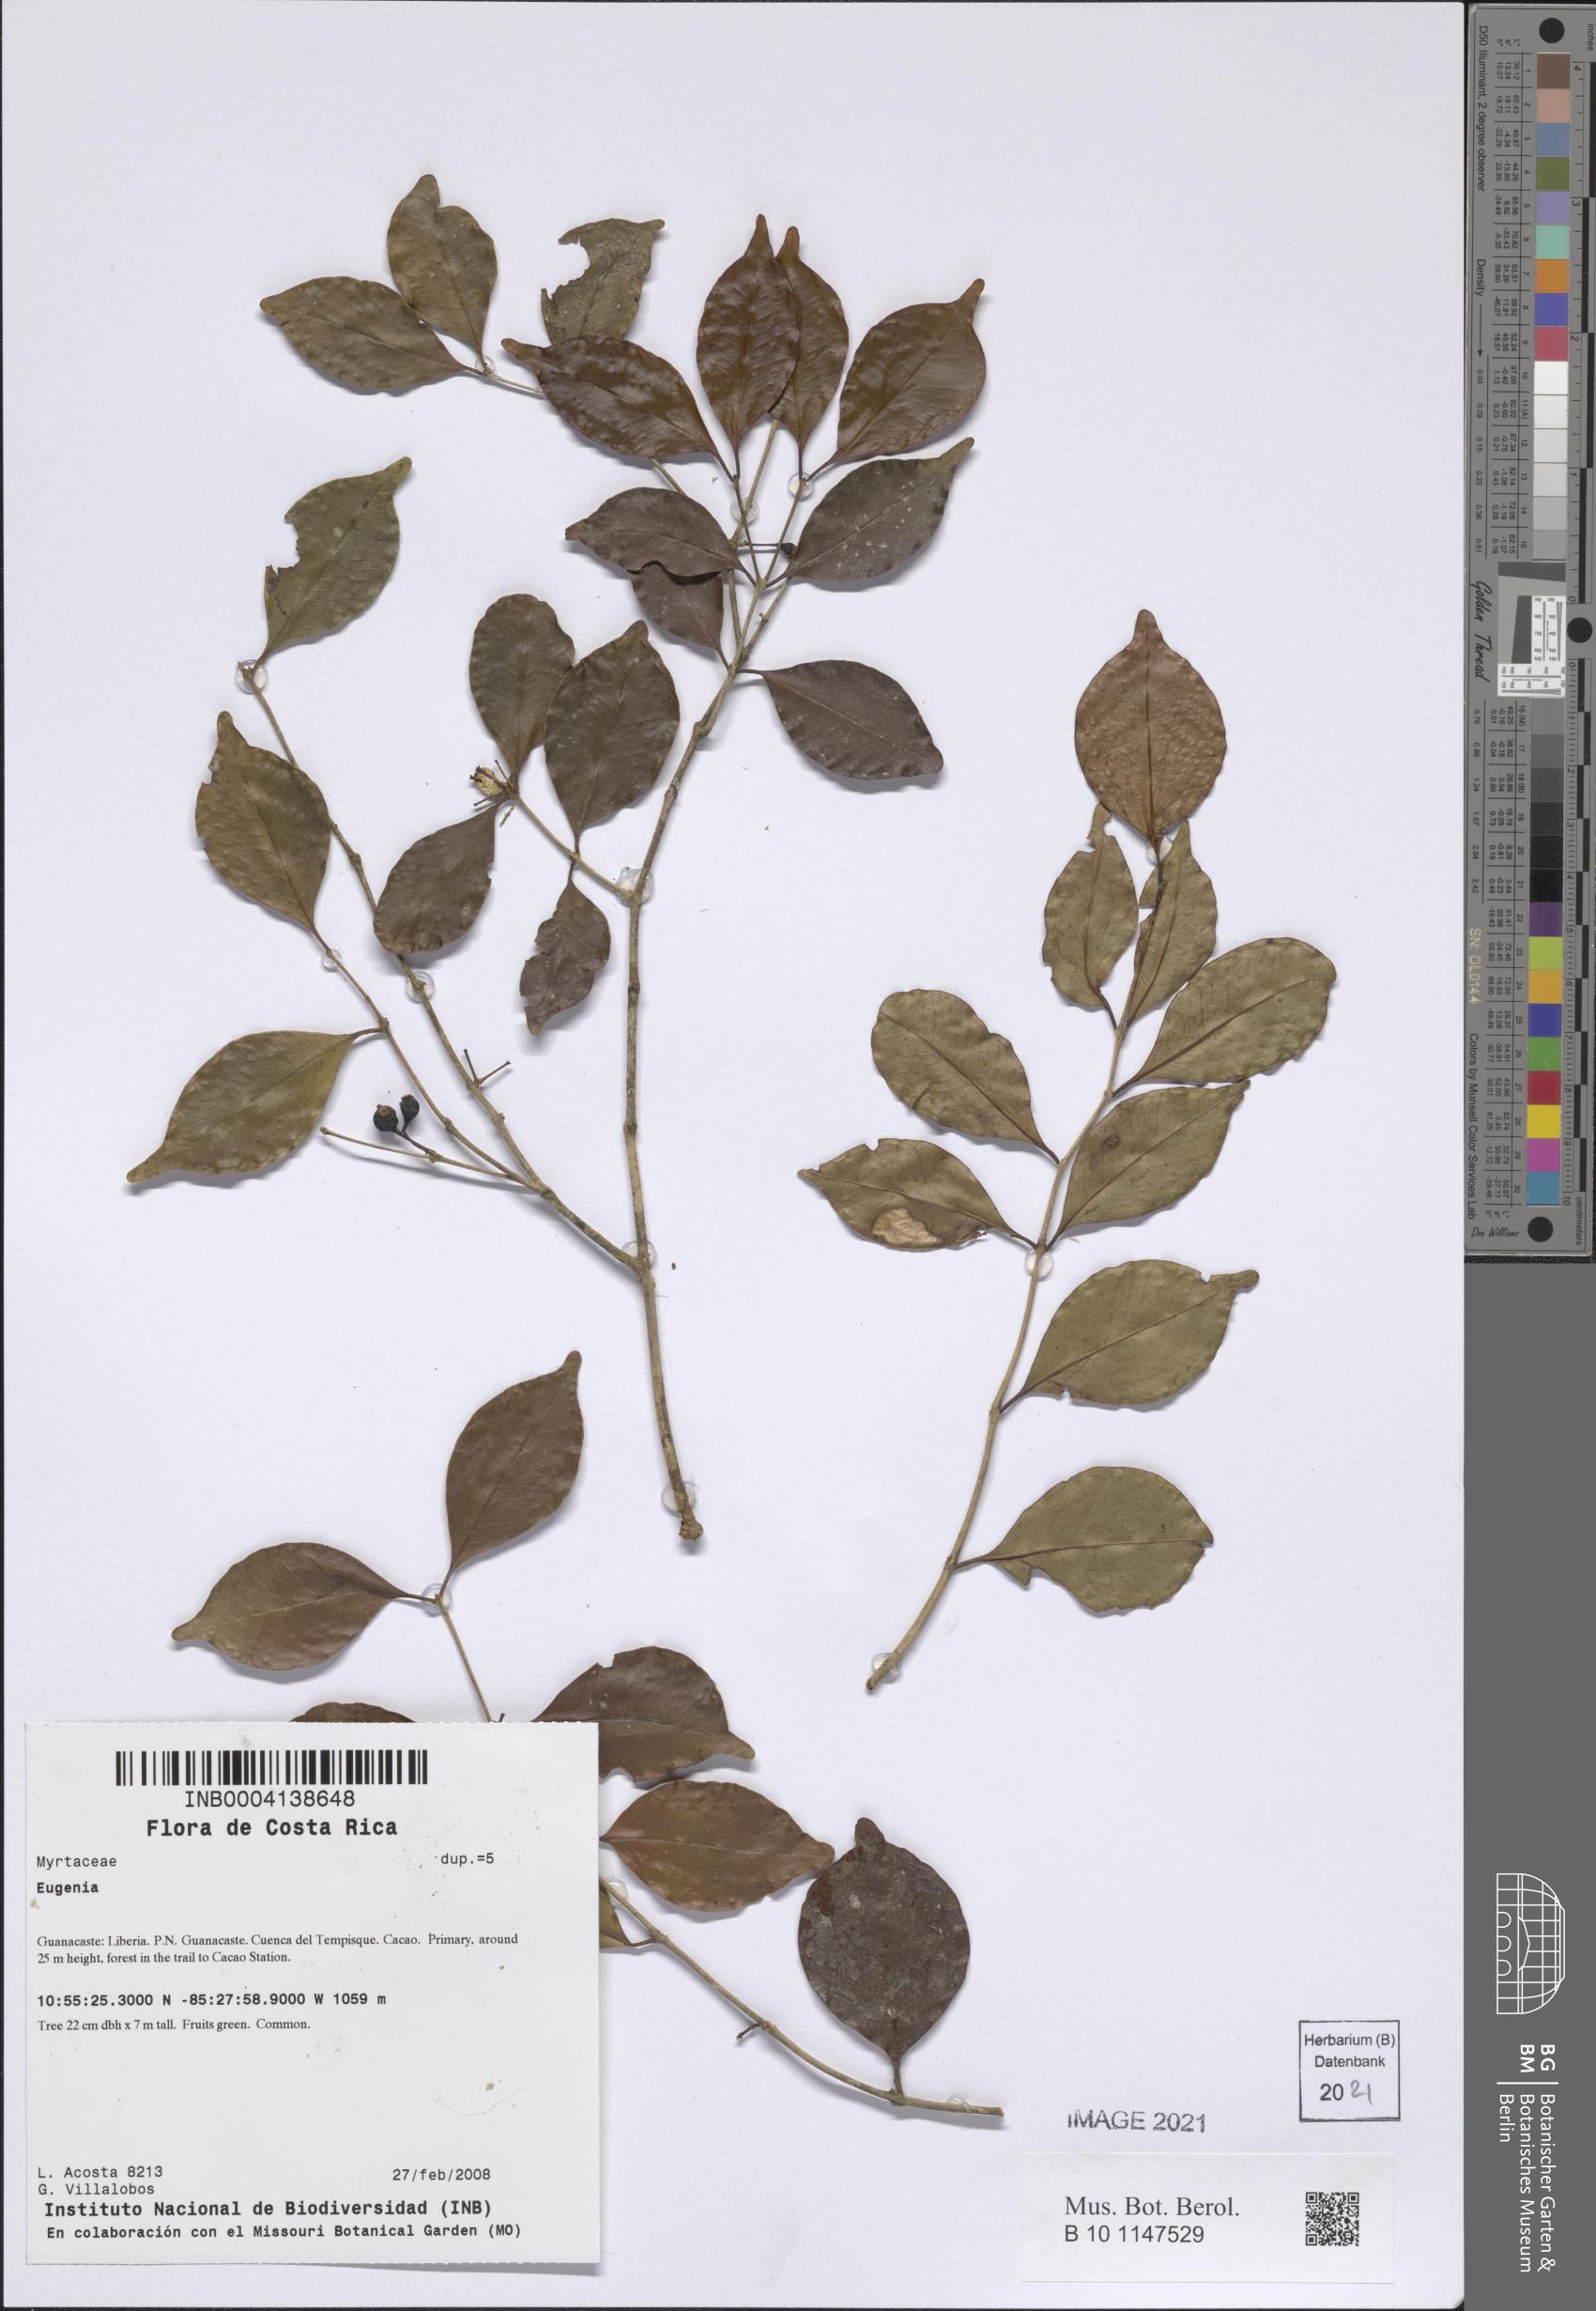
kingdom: Plantae
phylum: Tracheophyta
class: Magnoliopsida
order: Myrtales
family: Myrtaceae
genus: Eugenia
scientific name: Eugenia
